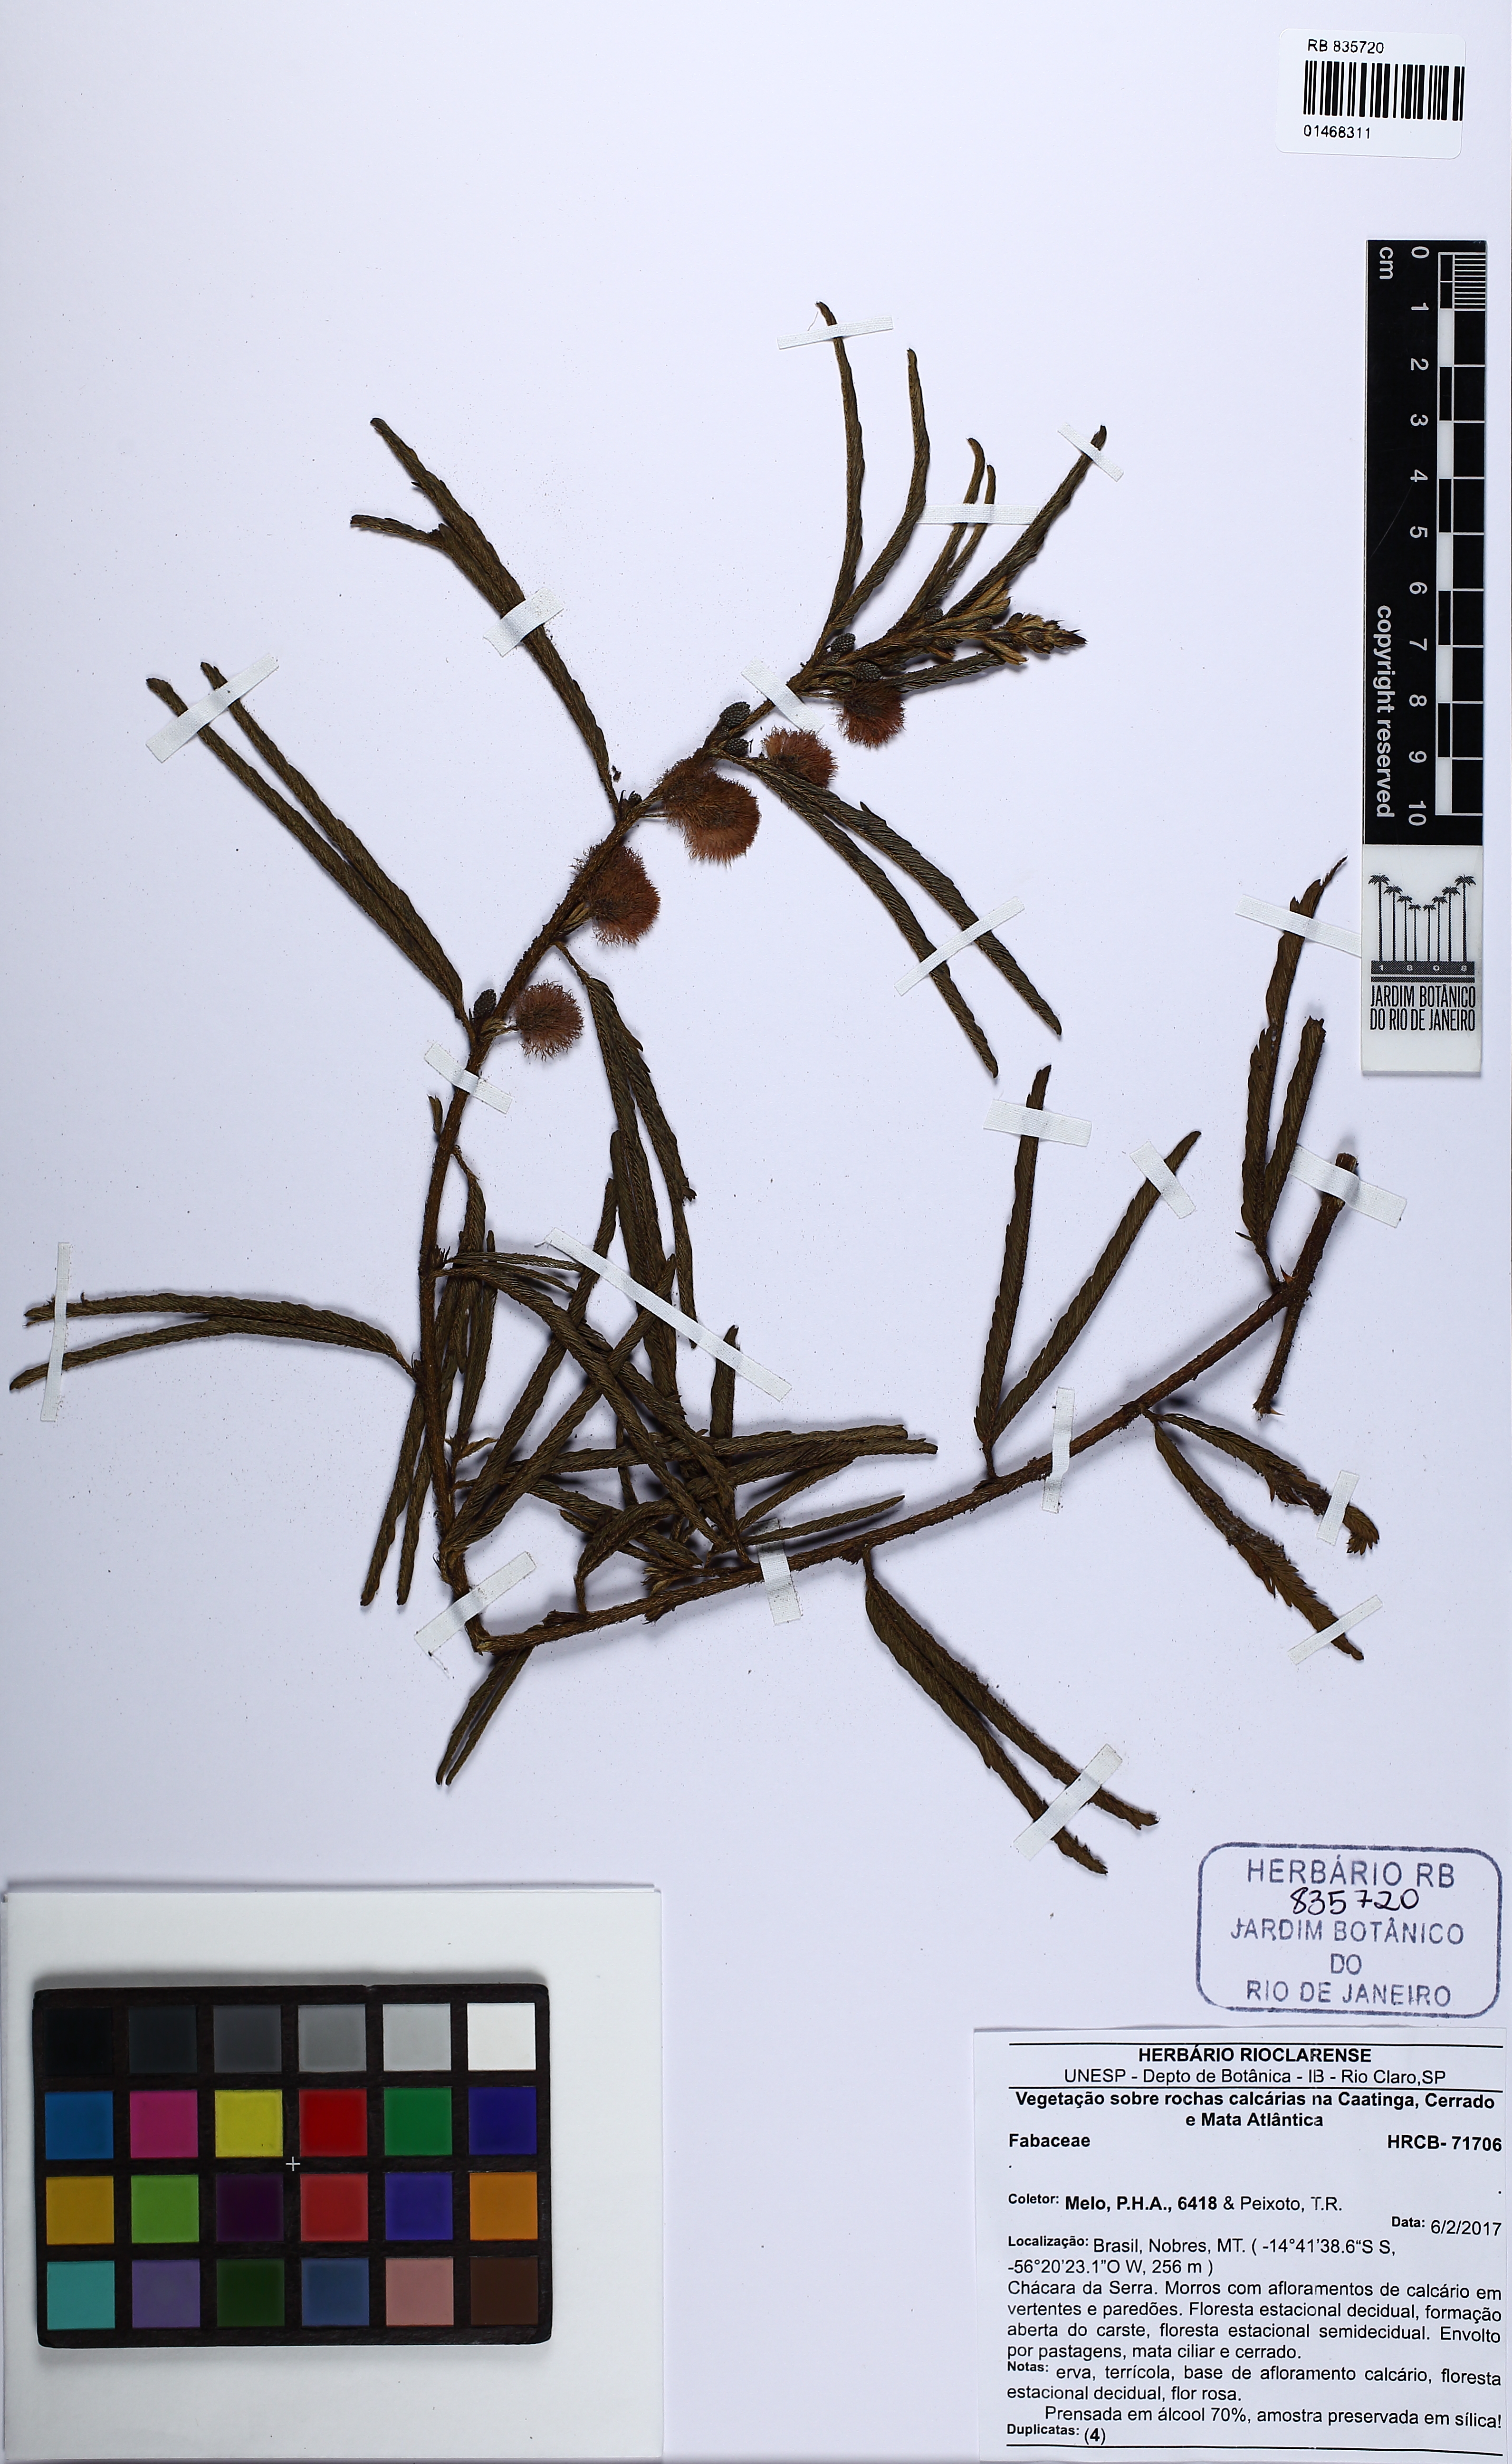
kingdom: Plantae
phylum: Tracheophyta
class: Magnoliopsida
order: Fabales
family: Fabaceae
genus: Mimosa
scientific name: Mimosa
